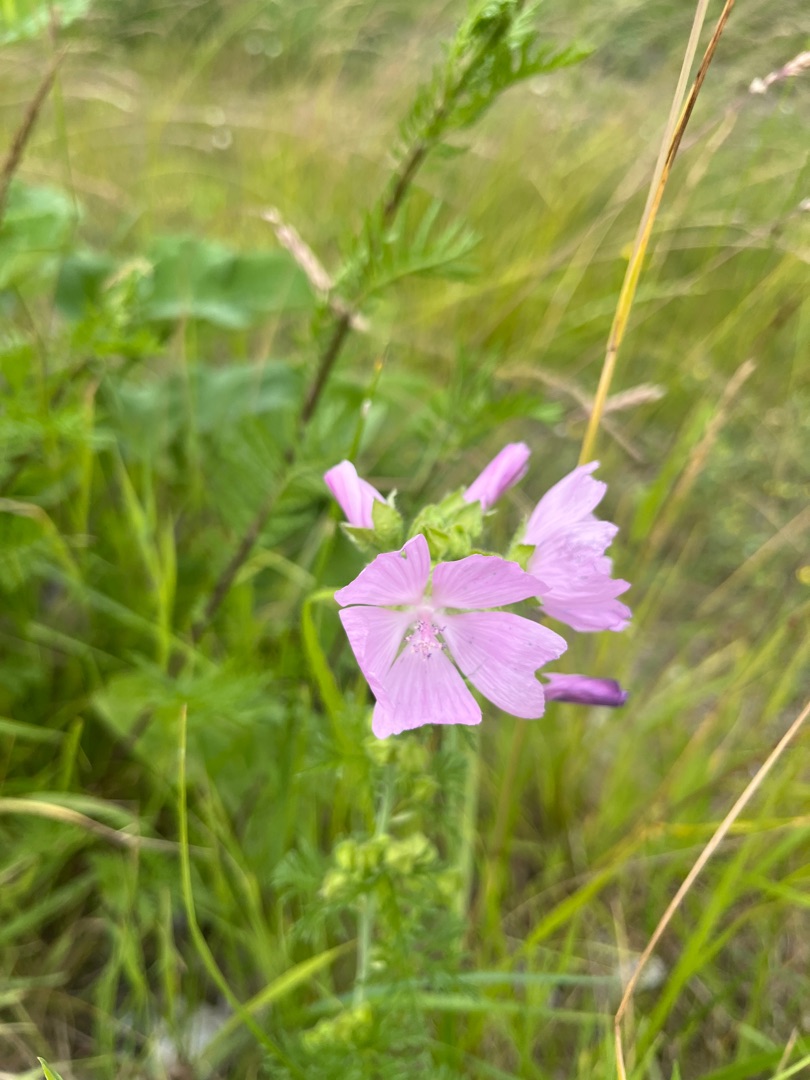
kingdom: Plantae
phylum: Tracheophyta
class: Magnoliopsida
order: Malvales
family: Malvaceae
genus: Malva
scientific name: Malva
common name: Katostslægten
